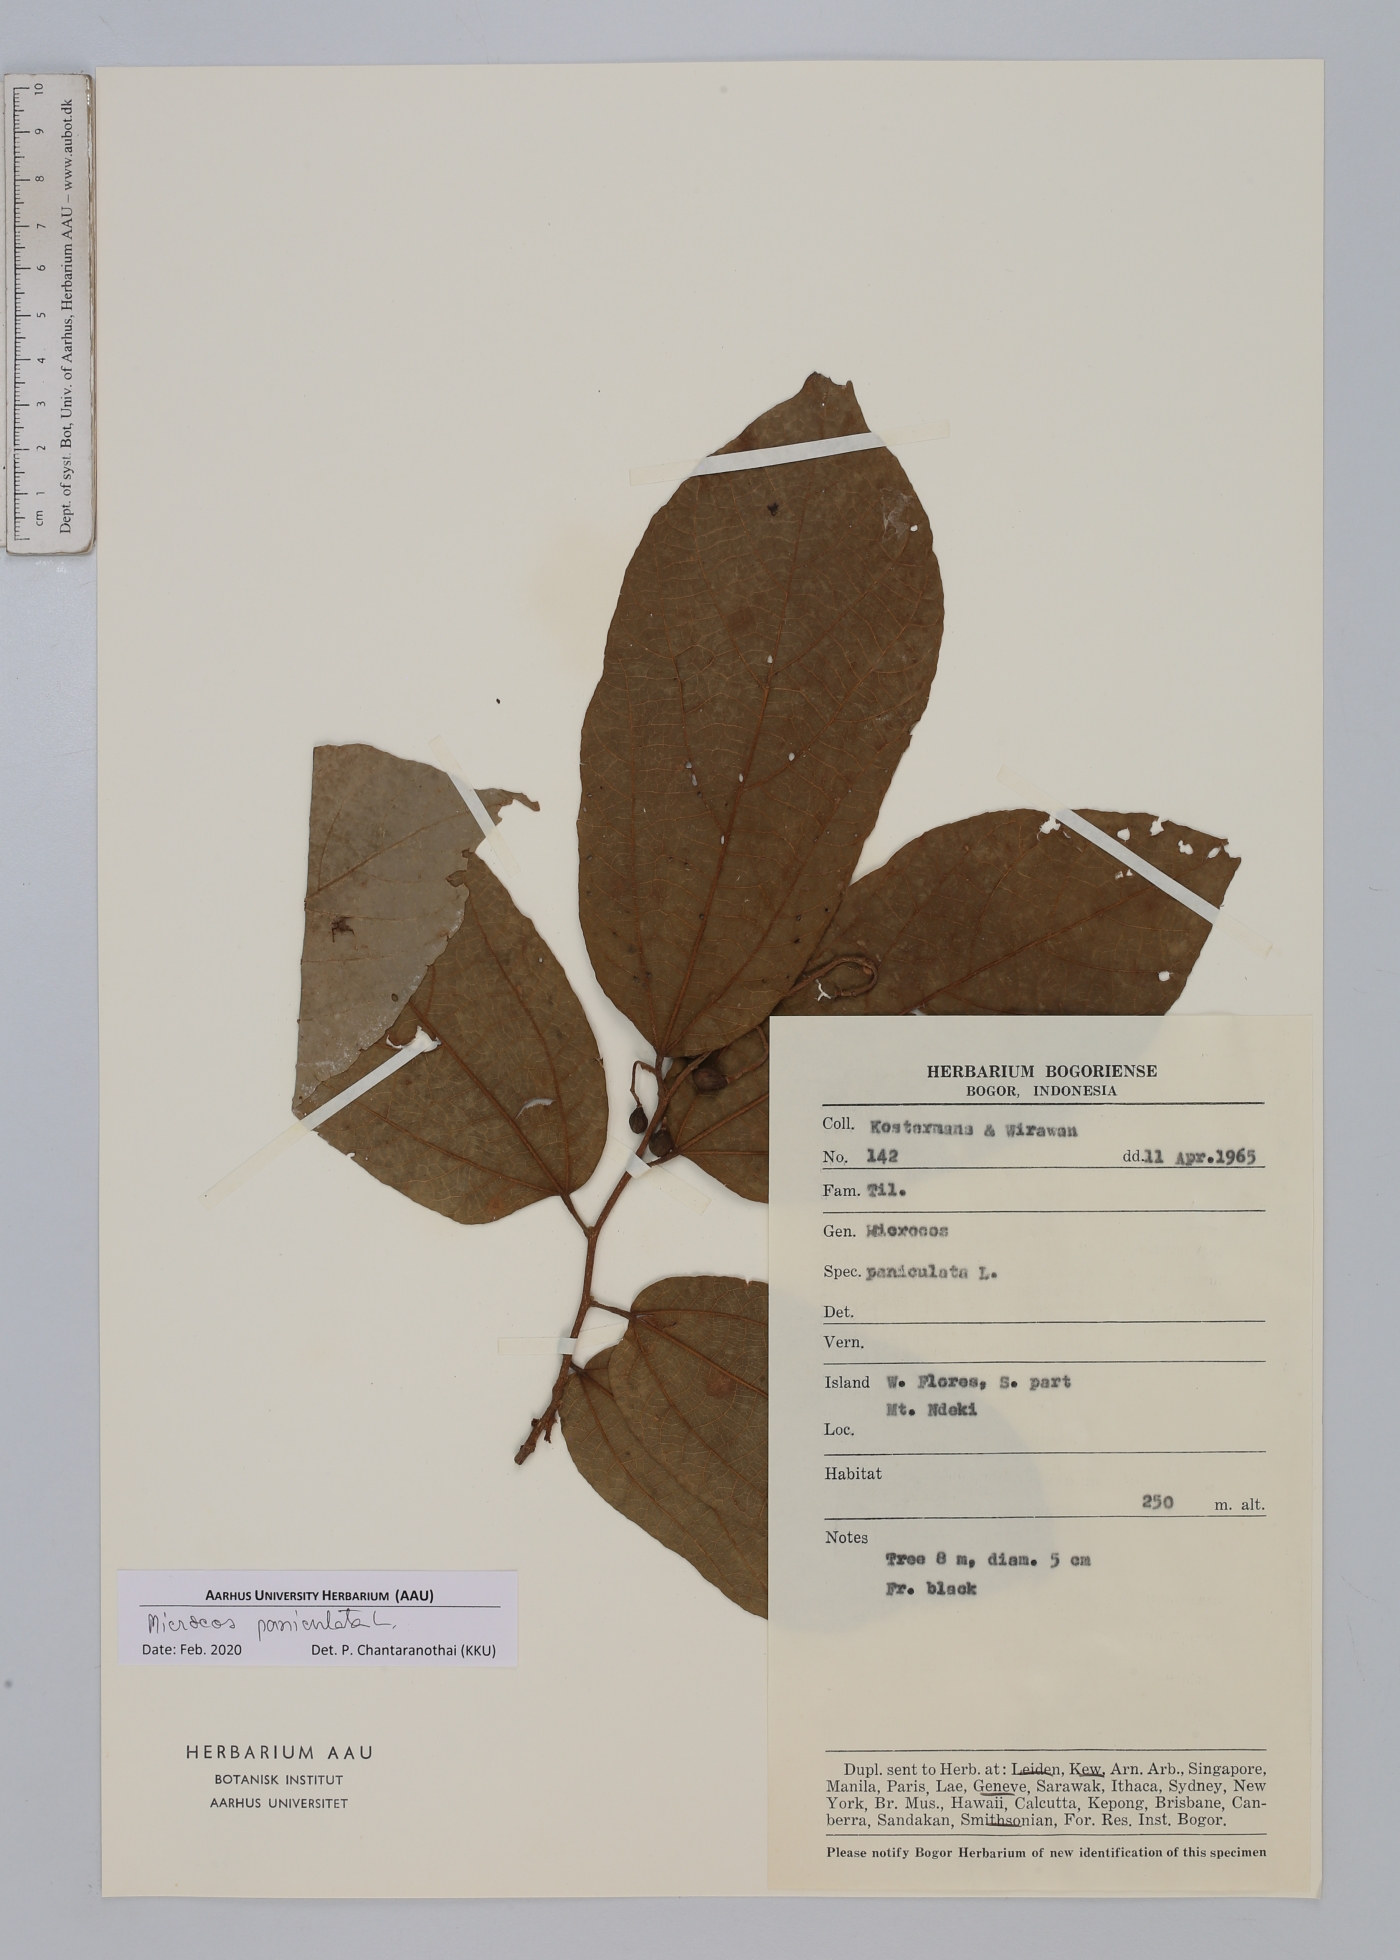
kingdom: Plantae
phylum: Tracheophyta
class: Magnoliopsida
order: Malvales
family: Malvaceae
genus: Microcos
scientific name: Microcos paniculata
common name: Microcos
